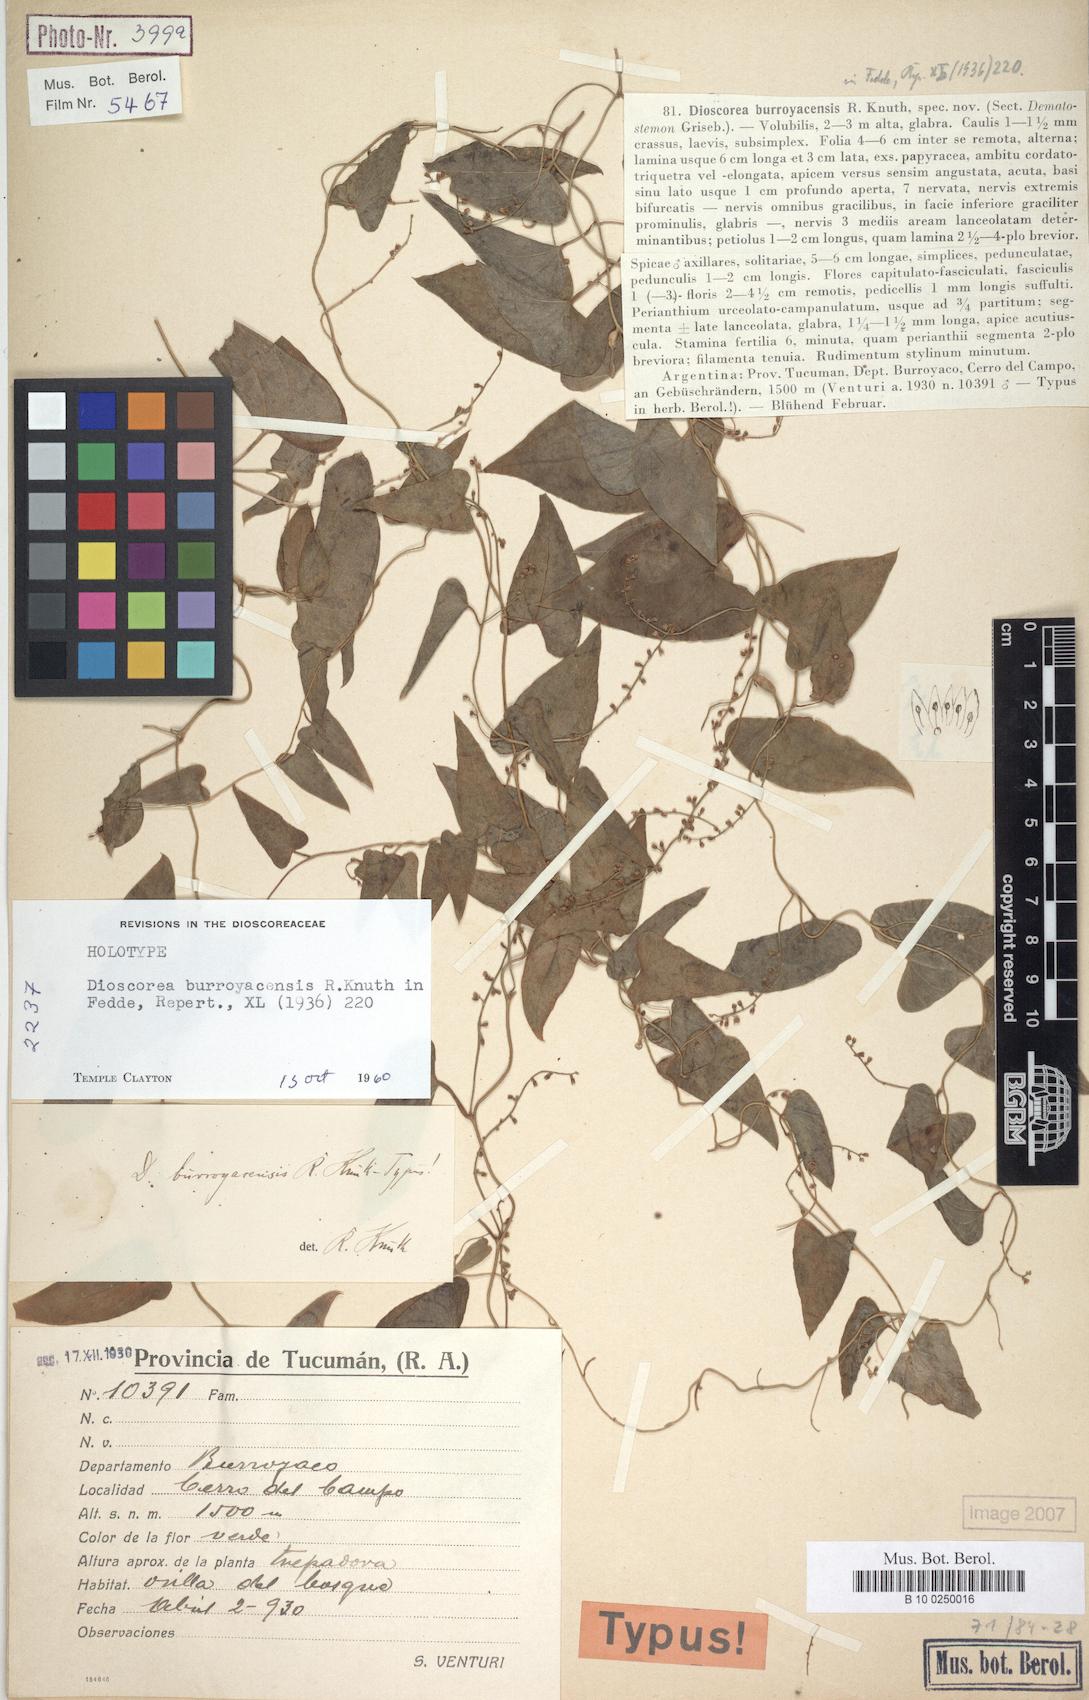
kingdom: Plantae
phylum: Tracheophyta
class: Liliopsida
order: Dioscoreales
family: Dioscoreaceae
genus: Dioscorea
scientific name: Dioscorea glomerulata
